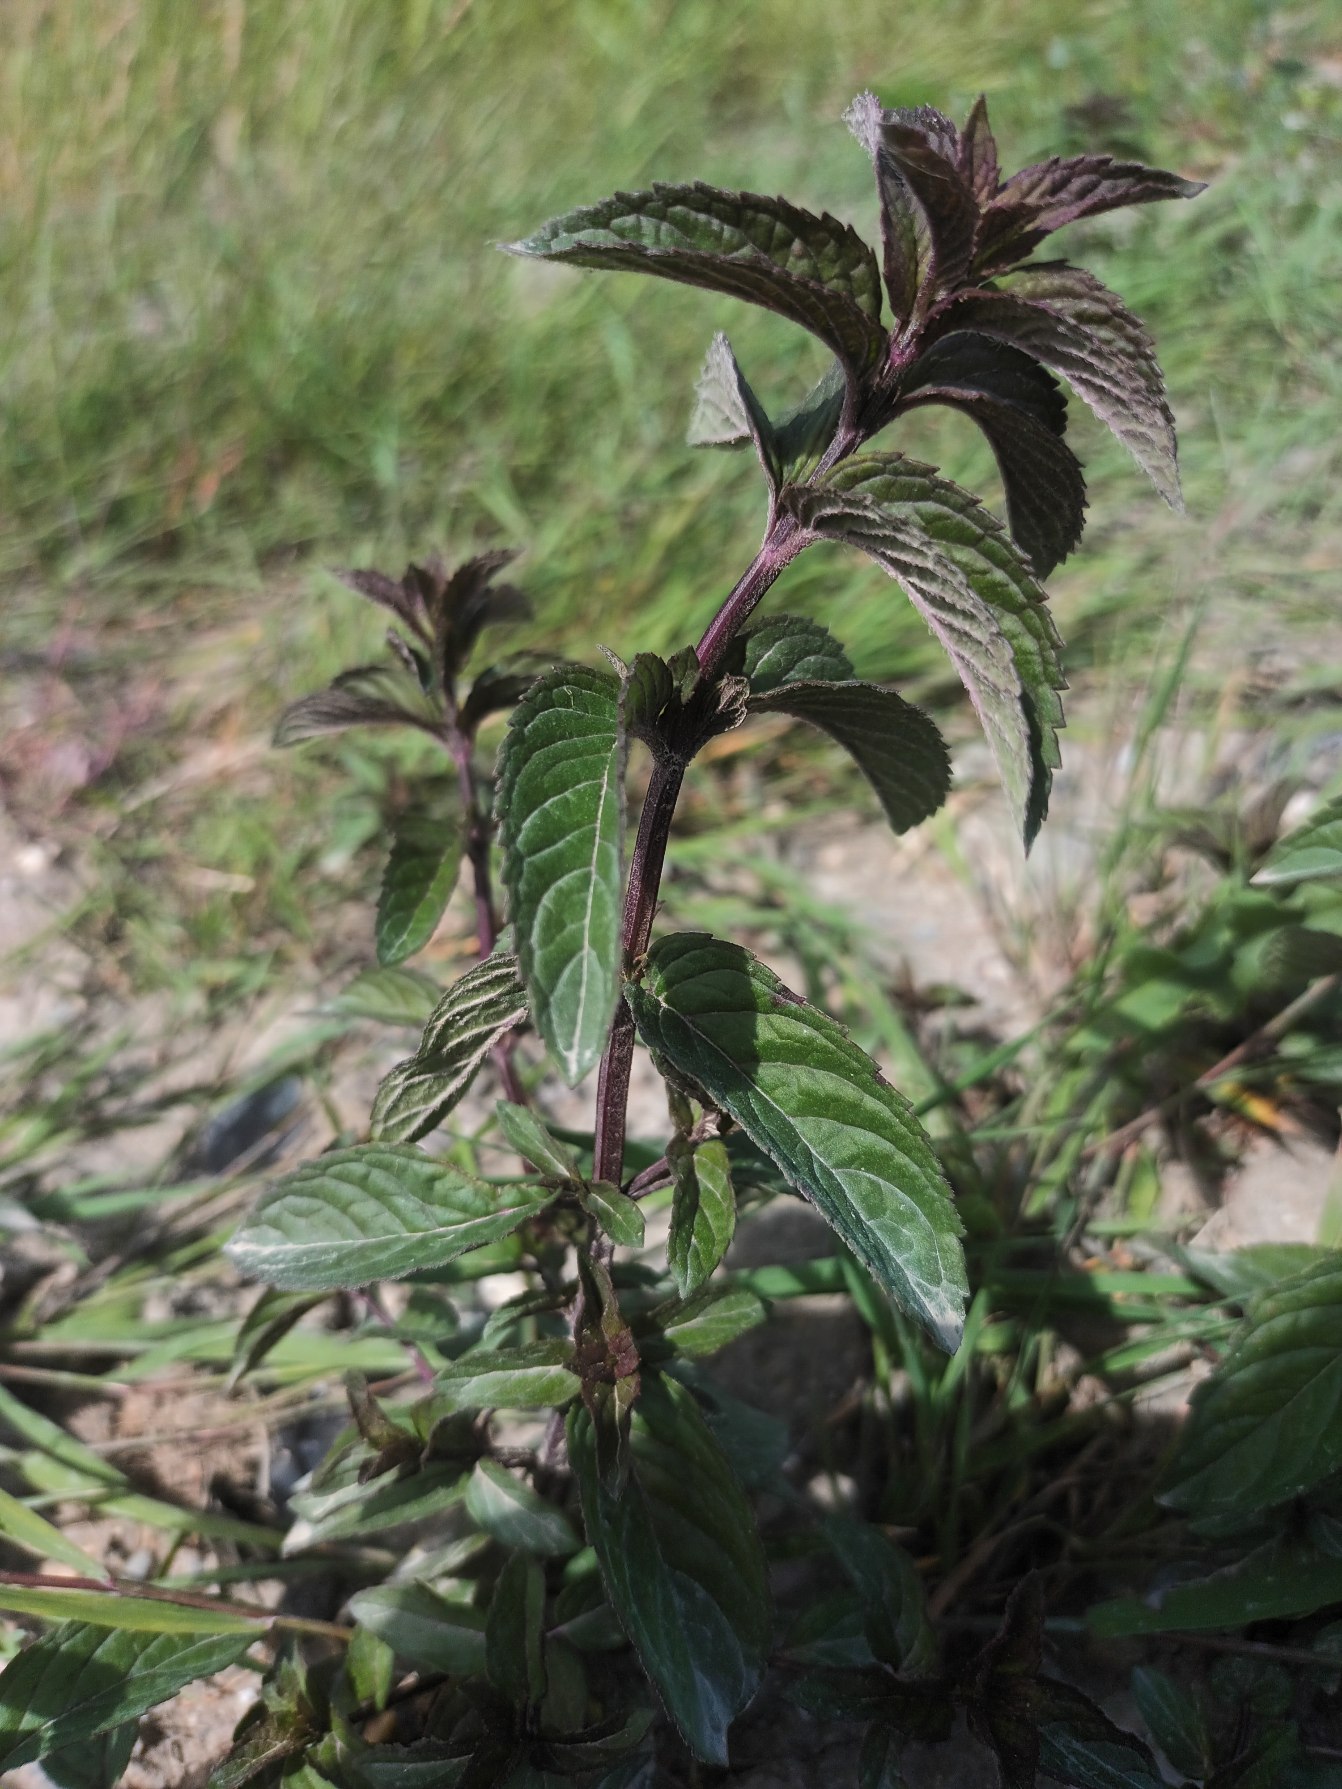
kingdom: Plantae
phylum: Tracheophyta
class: Magnoliopsida
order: Lamiales
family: Lamiaceae
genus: Mentha
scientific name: Mentha piperita
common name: Peber-mynte
